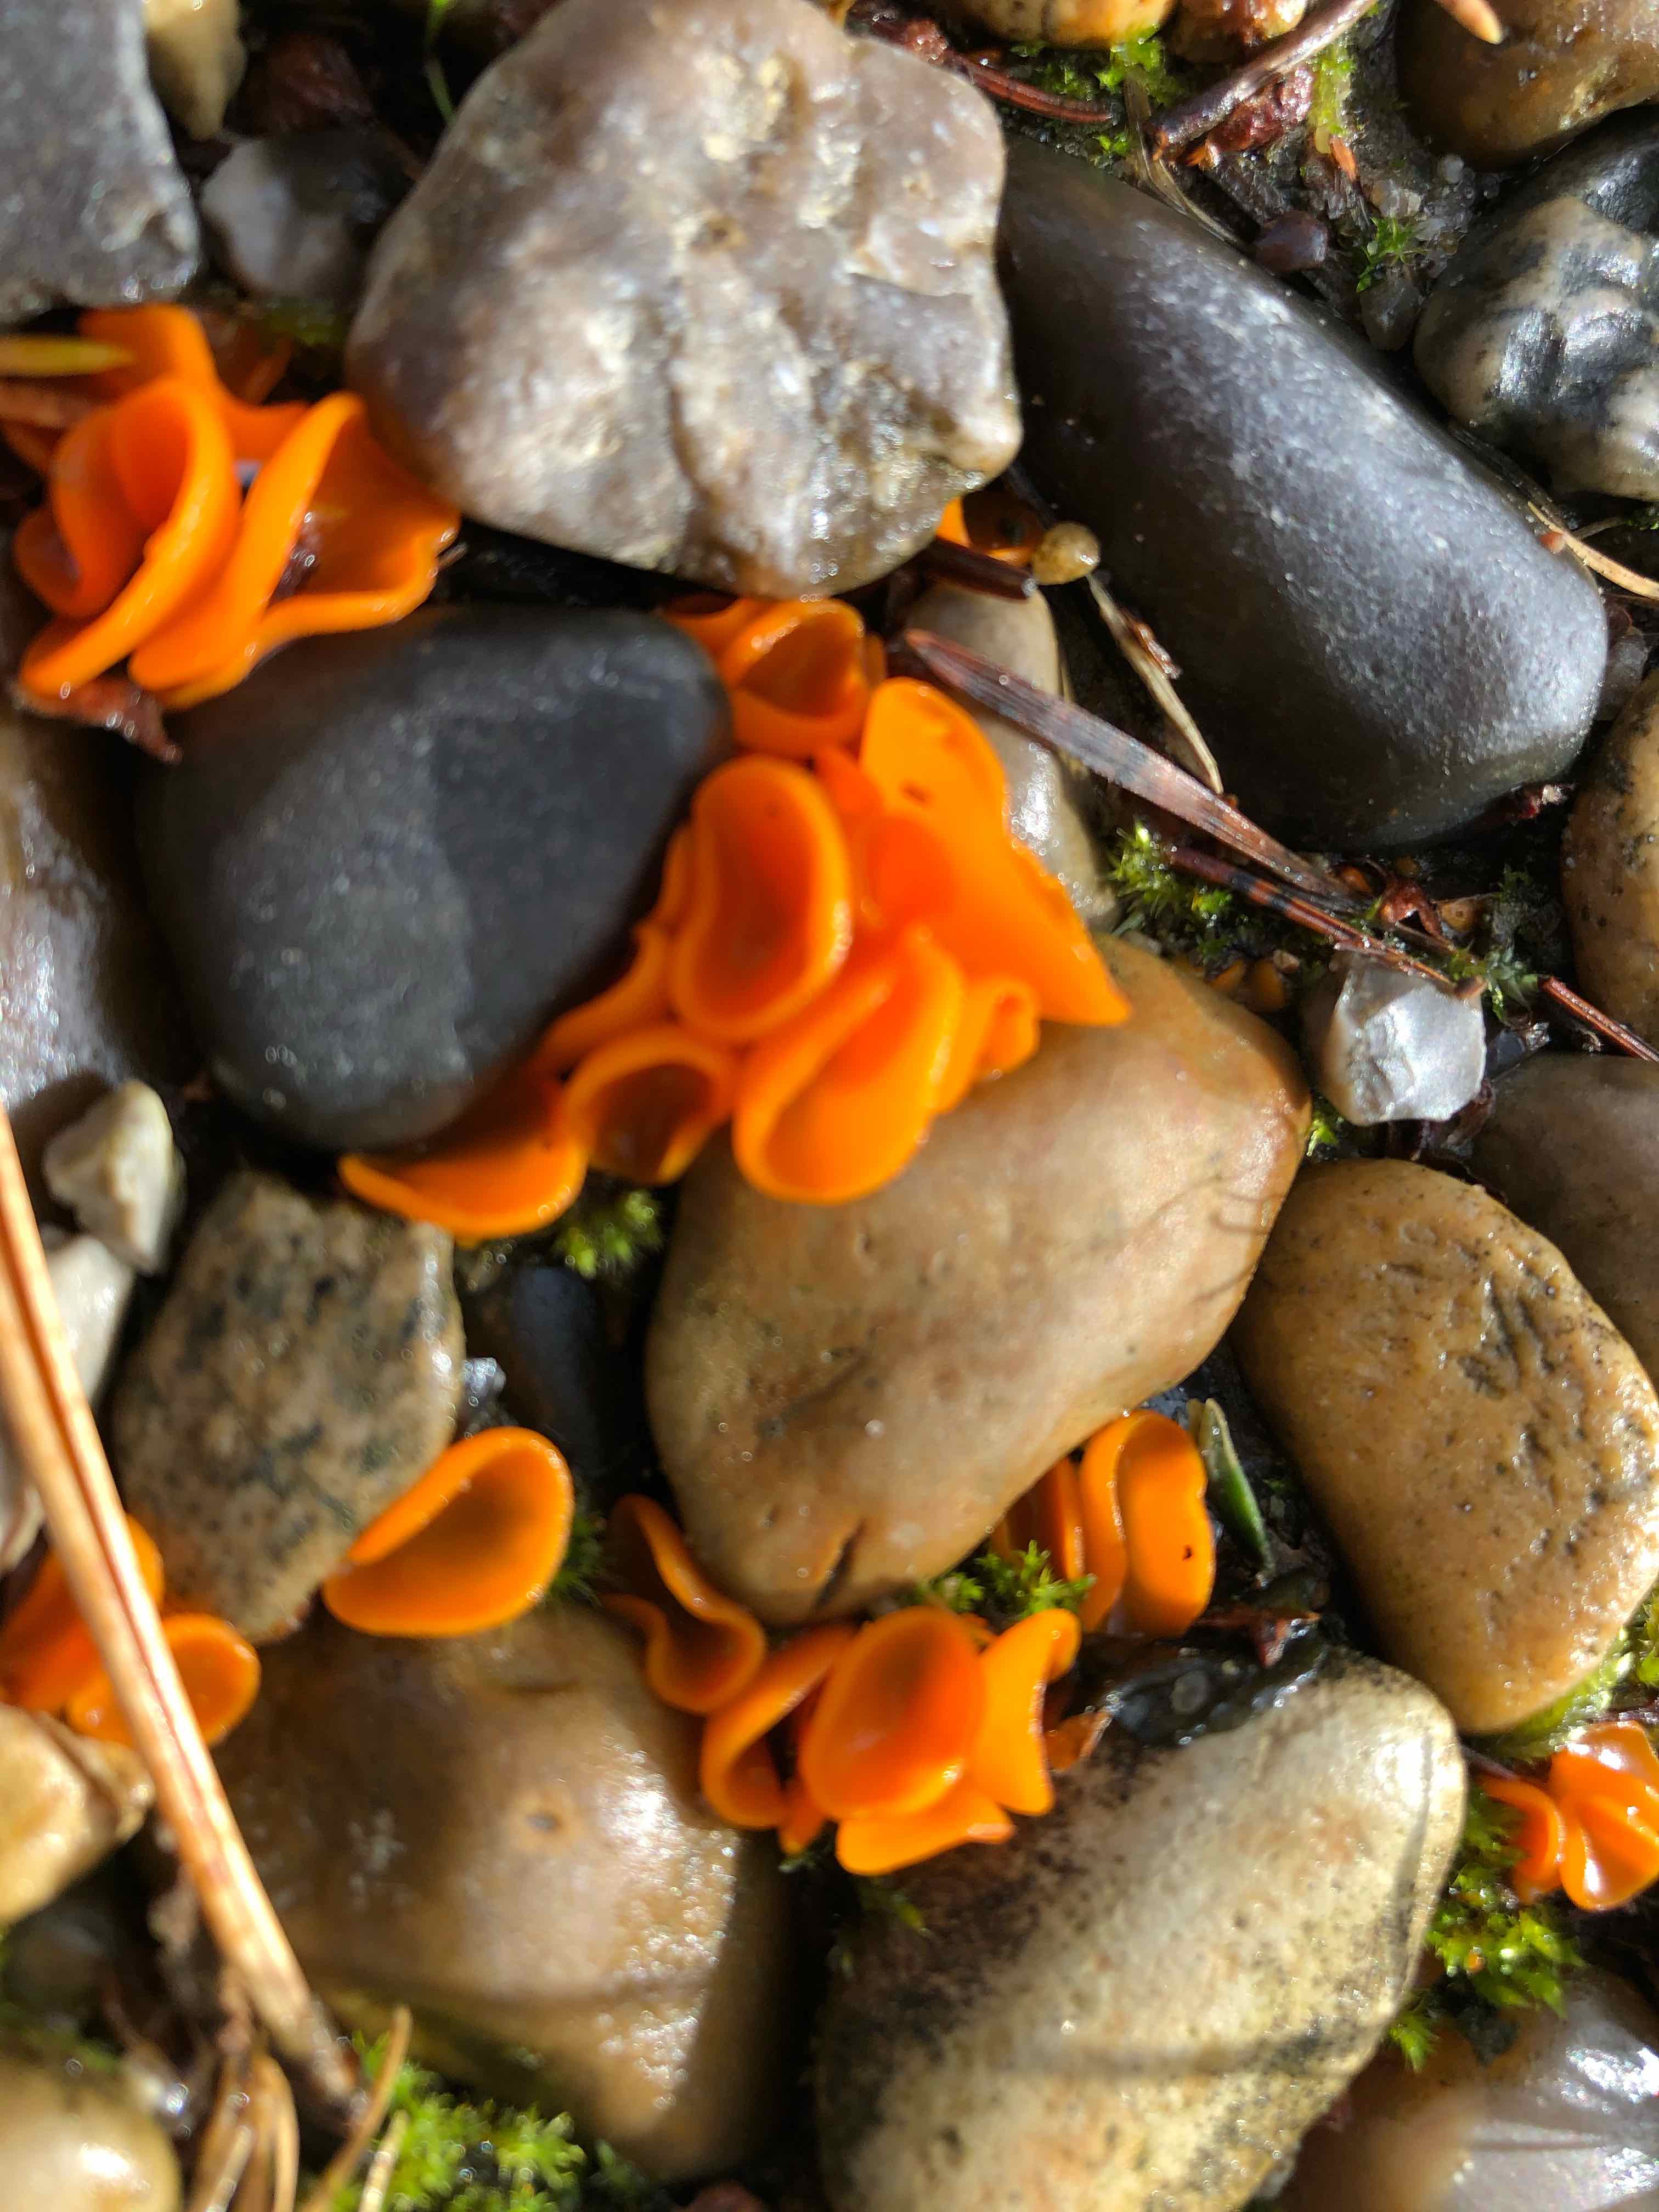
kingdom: Fungi
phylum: Ascomycota
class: Pezizomycetes
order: Pezizales
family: Pyronemataceae
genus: Aleuria
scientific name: Aleuria aurantia
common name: almindelig orangebæger
